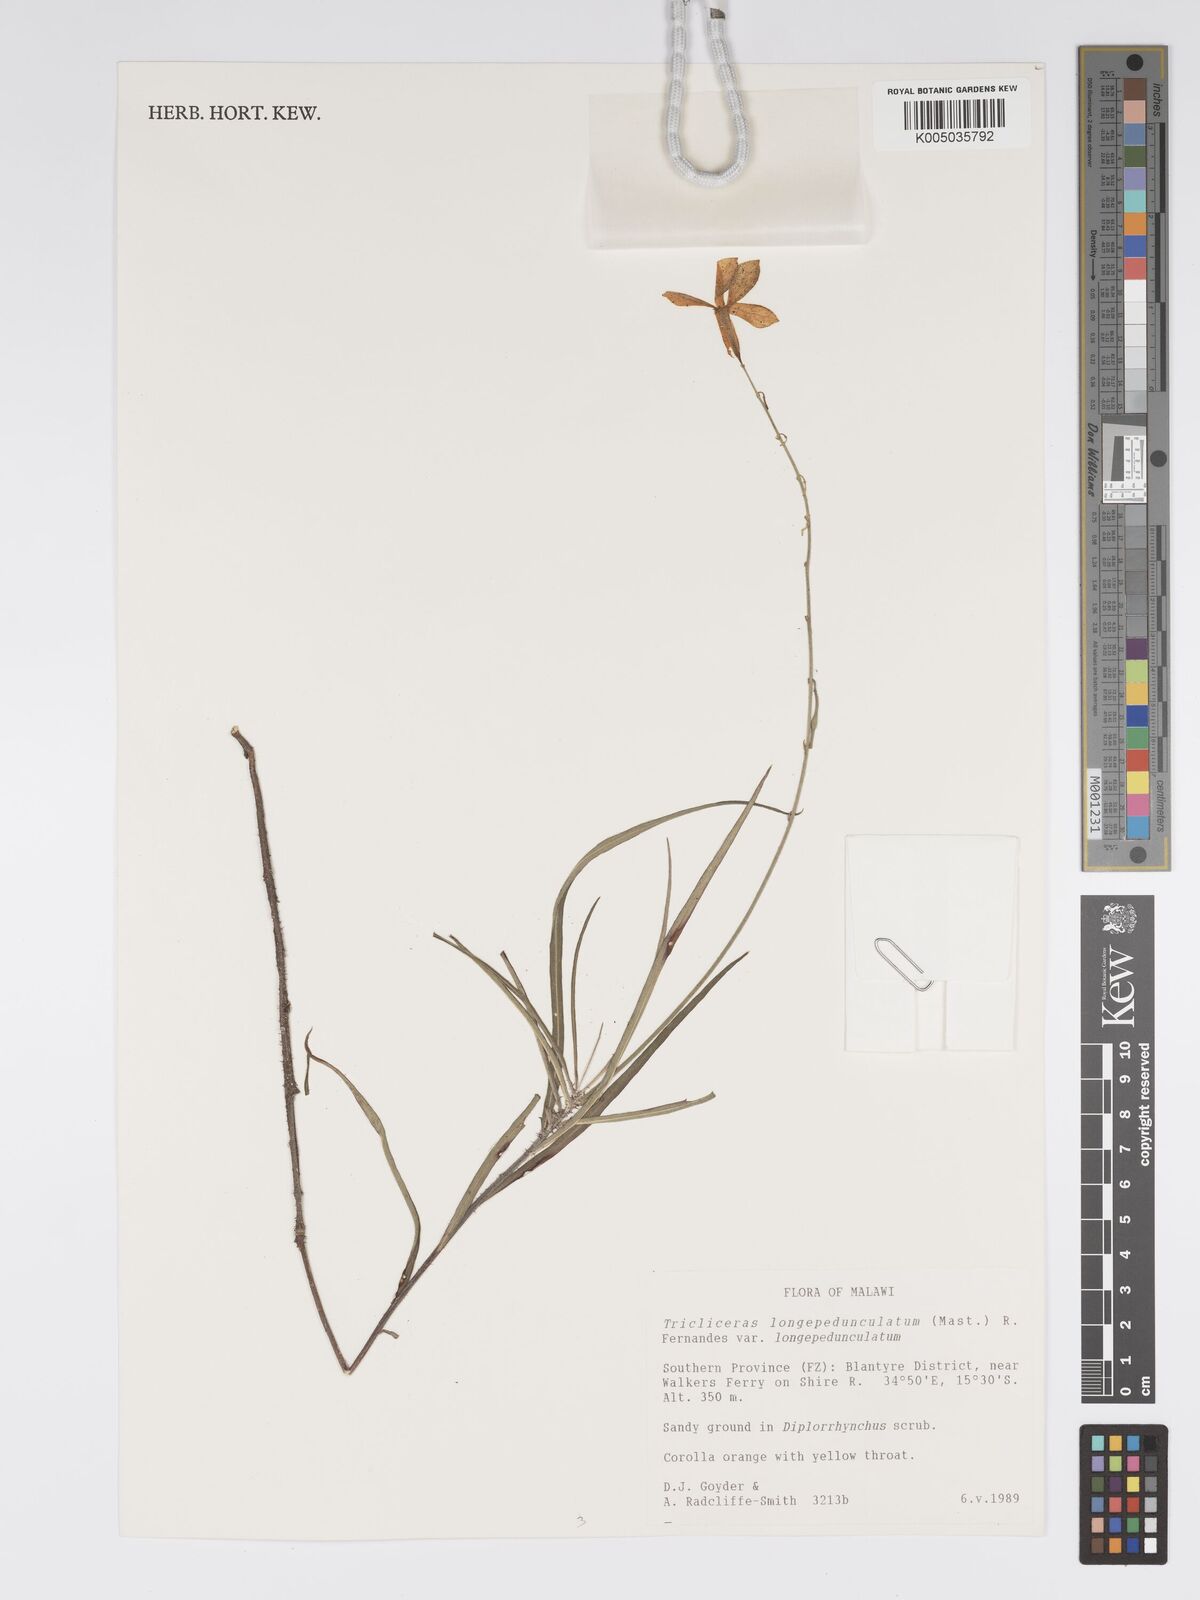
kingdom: Plantae
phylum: Tracheophyta
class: Magnoliopsida
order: Malpighiales
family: Turneraceae
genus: Tricliceras
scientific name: Tricliceras longepedunculatum
